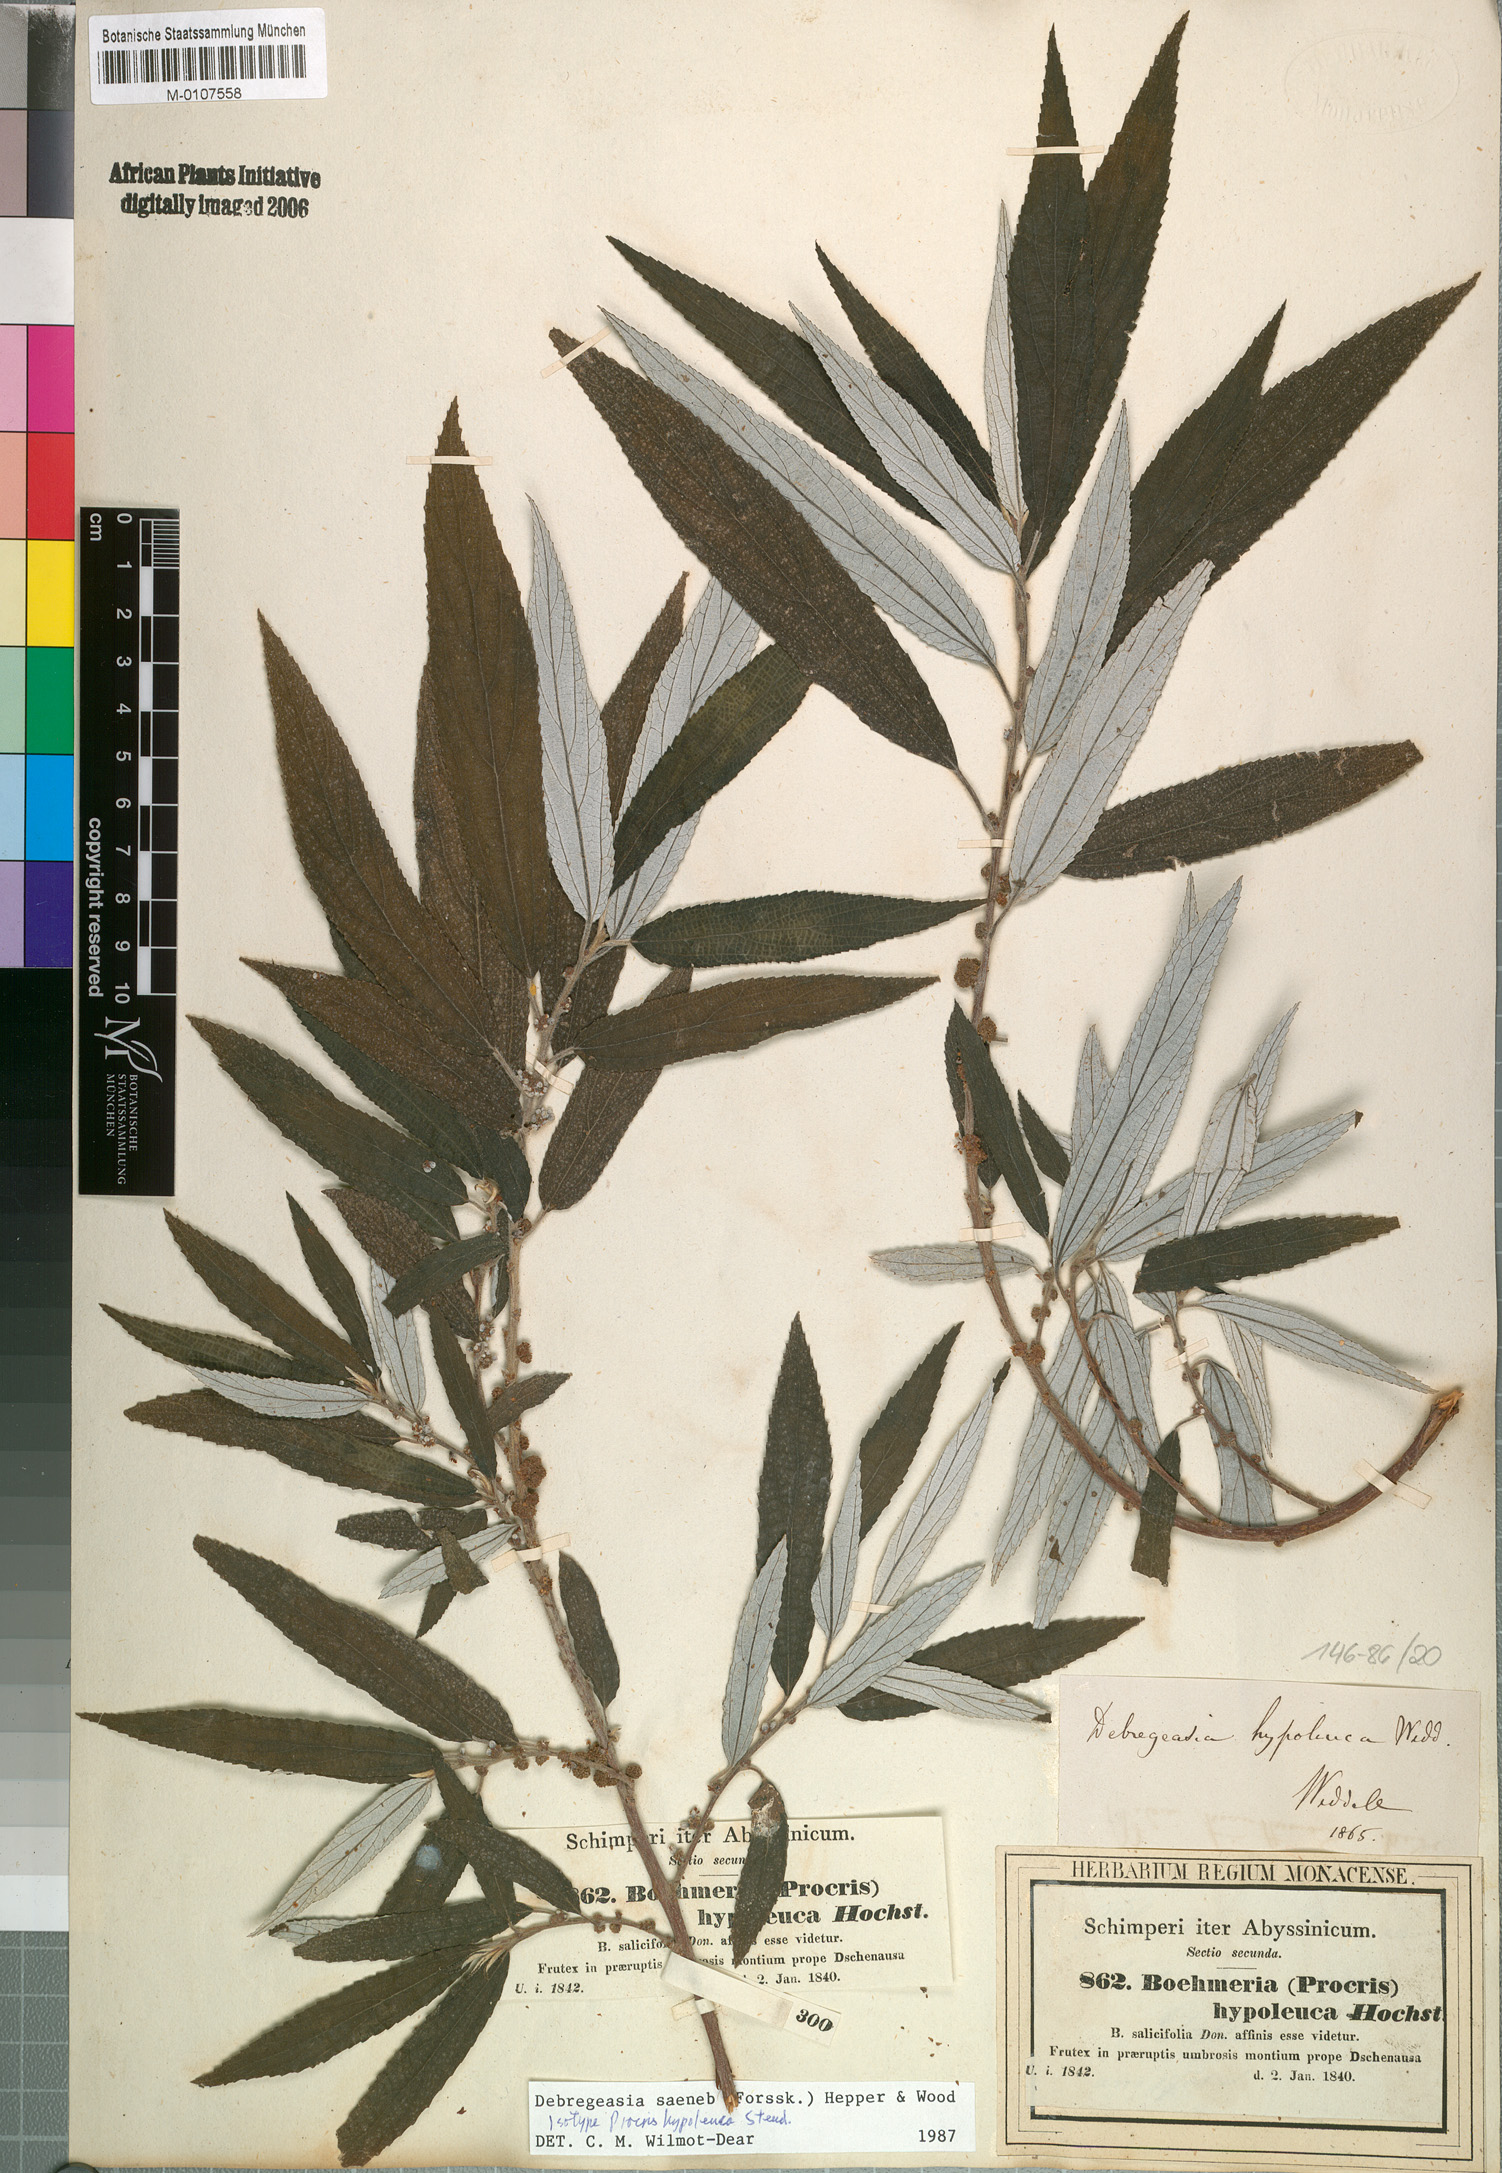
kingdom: Plantae
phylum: Tracheophyta
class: Magnoliopsida
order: Rosales
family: Urticaceae
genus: Debregeasia
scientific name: Debregeasia saeneb
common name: Himalayan wild rhea
